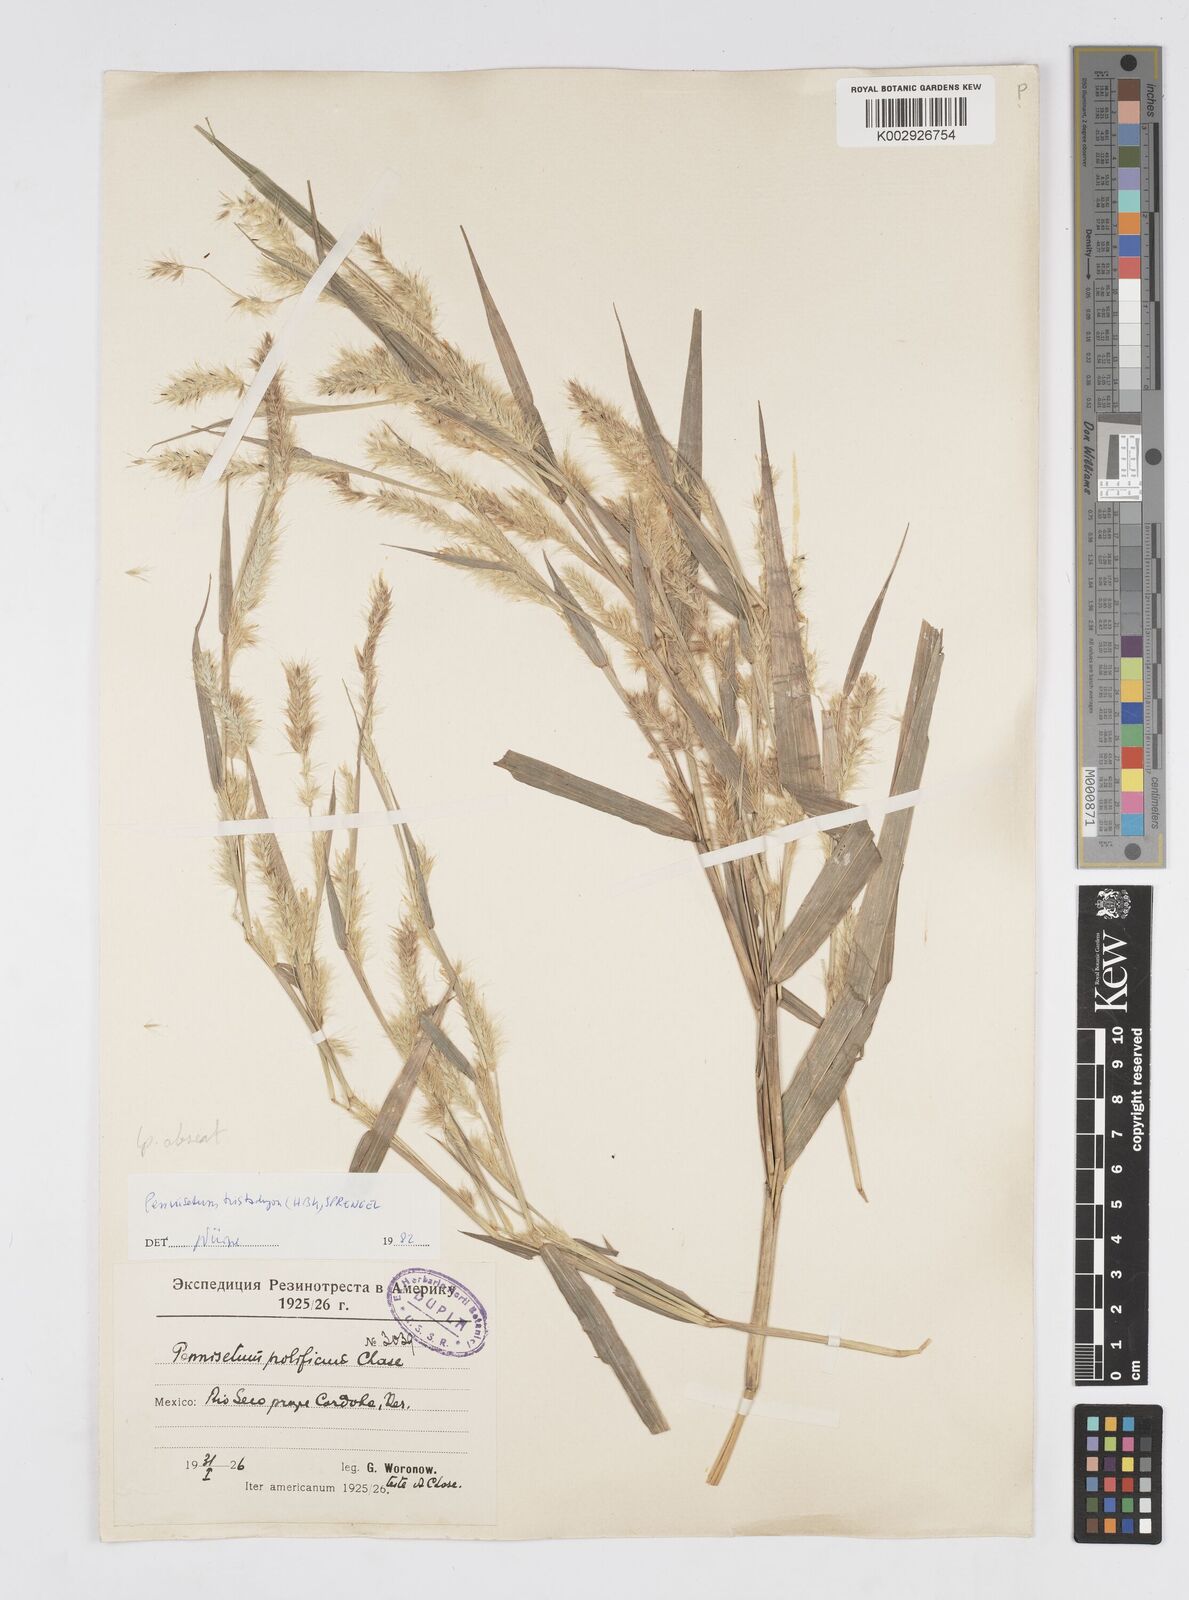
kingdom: Plantae
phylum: Tracheophyta
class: Liliopsida
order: Poales
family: Poaceae
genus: Cenchrus
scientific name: Cenchrus prolificus
